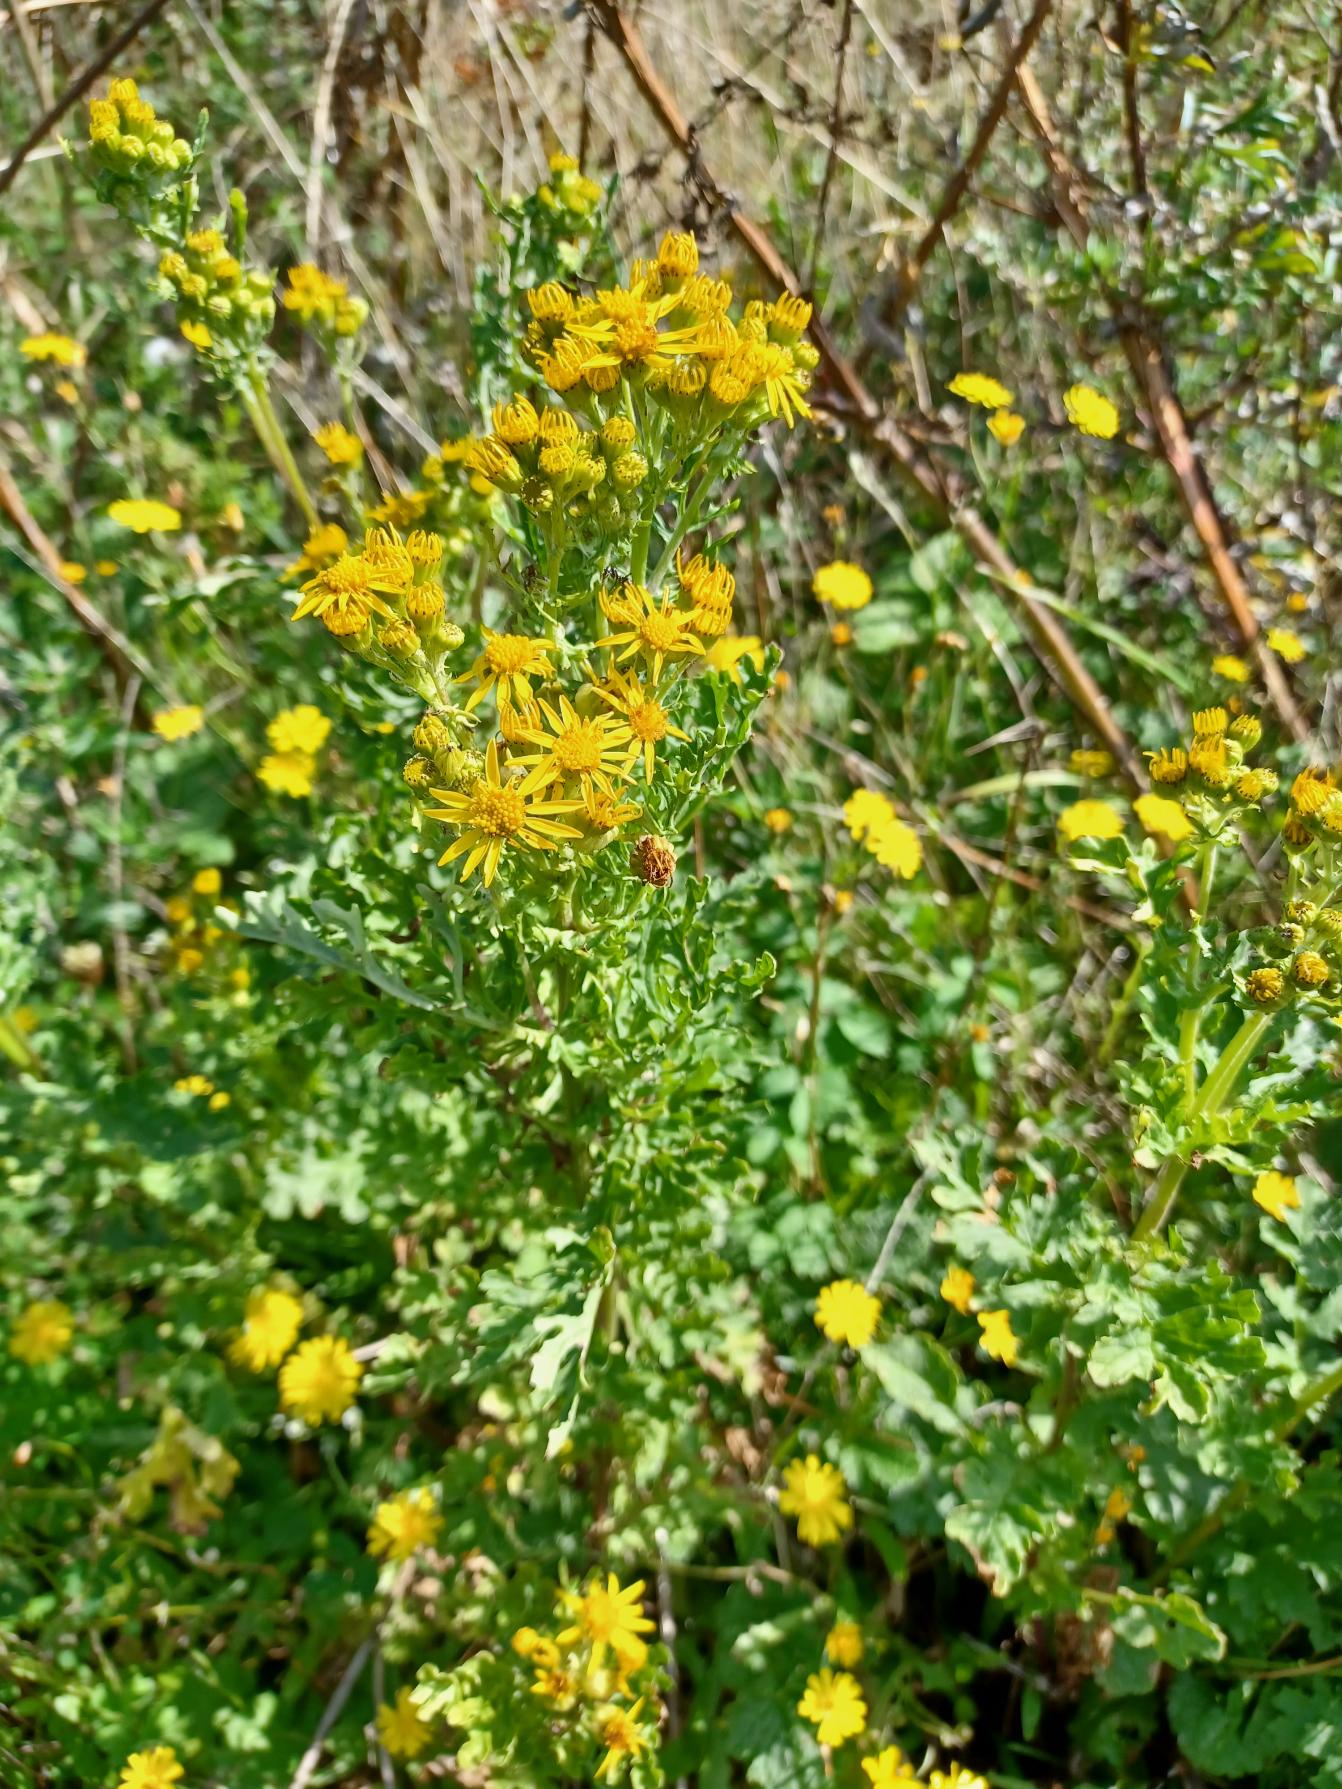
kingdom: Plantae
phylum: Tracheophyta
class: Magnoliopsida
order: Asterales
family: Asteraceae
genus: Jacobaea
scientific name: Jacobaea vulgaris
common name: Eng-brandbæger
